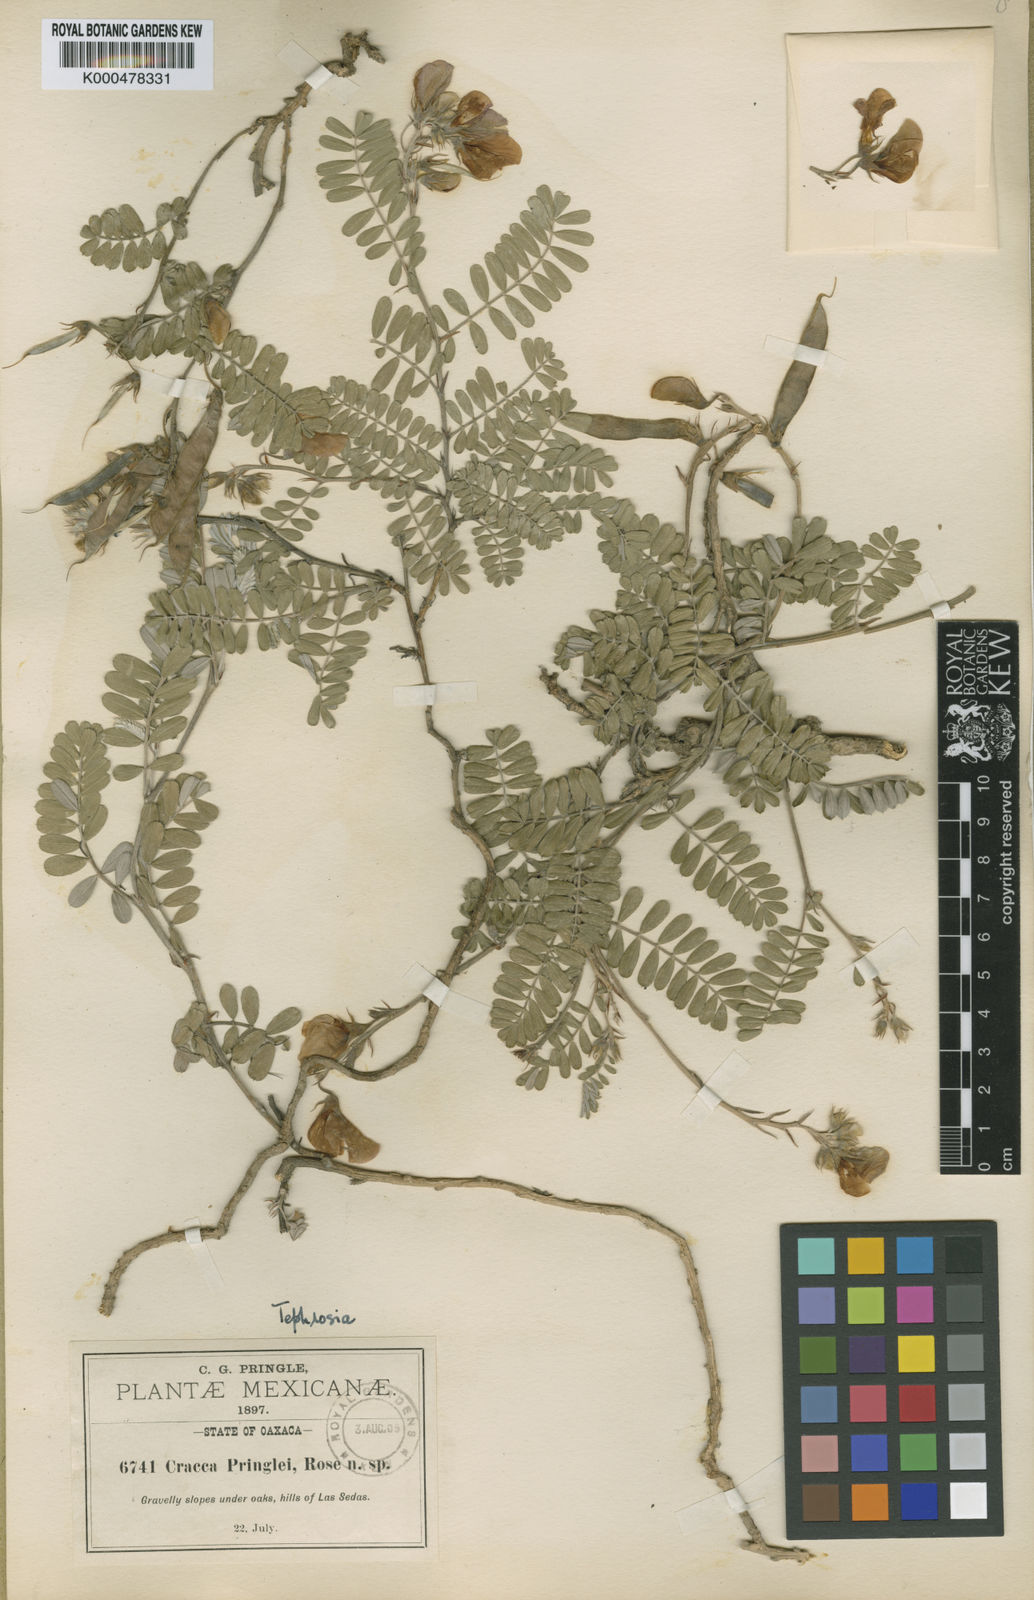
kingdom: Plantae
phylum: Tracheophyta
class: Magnoliopsida
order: Fabales
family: Fabaceae
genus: Tephrosia
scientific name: Tephrosia pringlei
